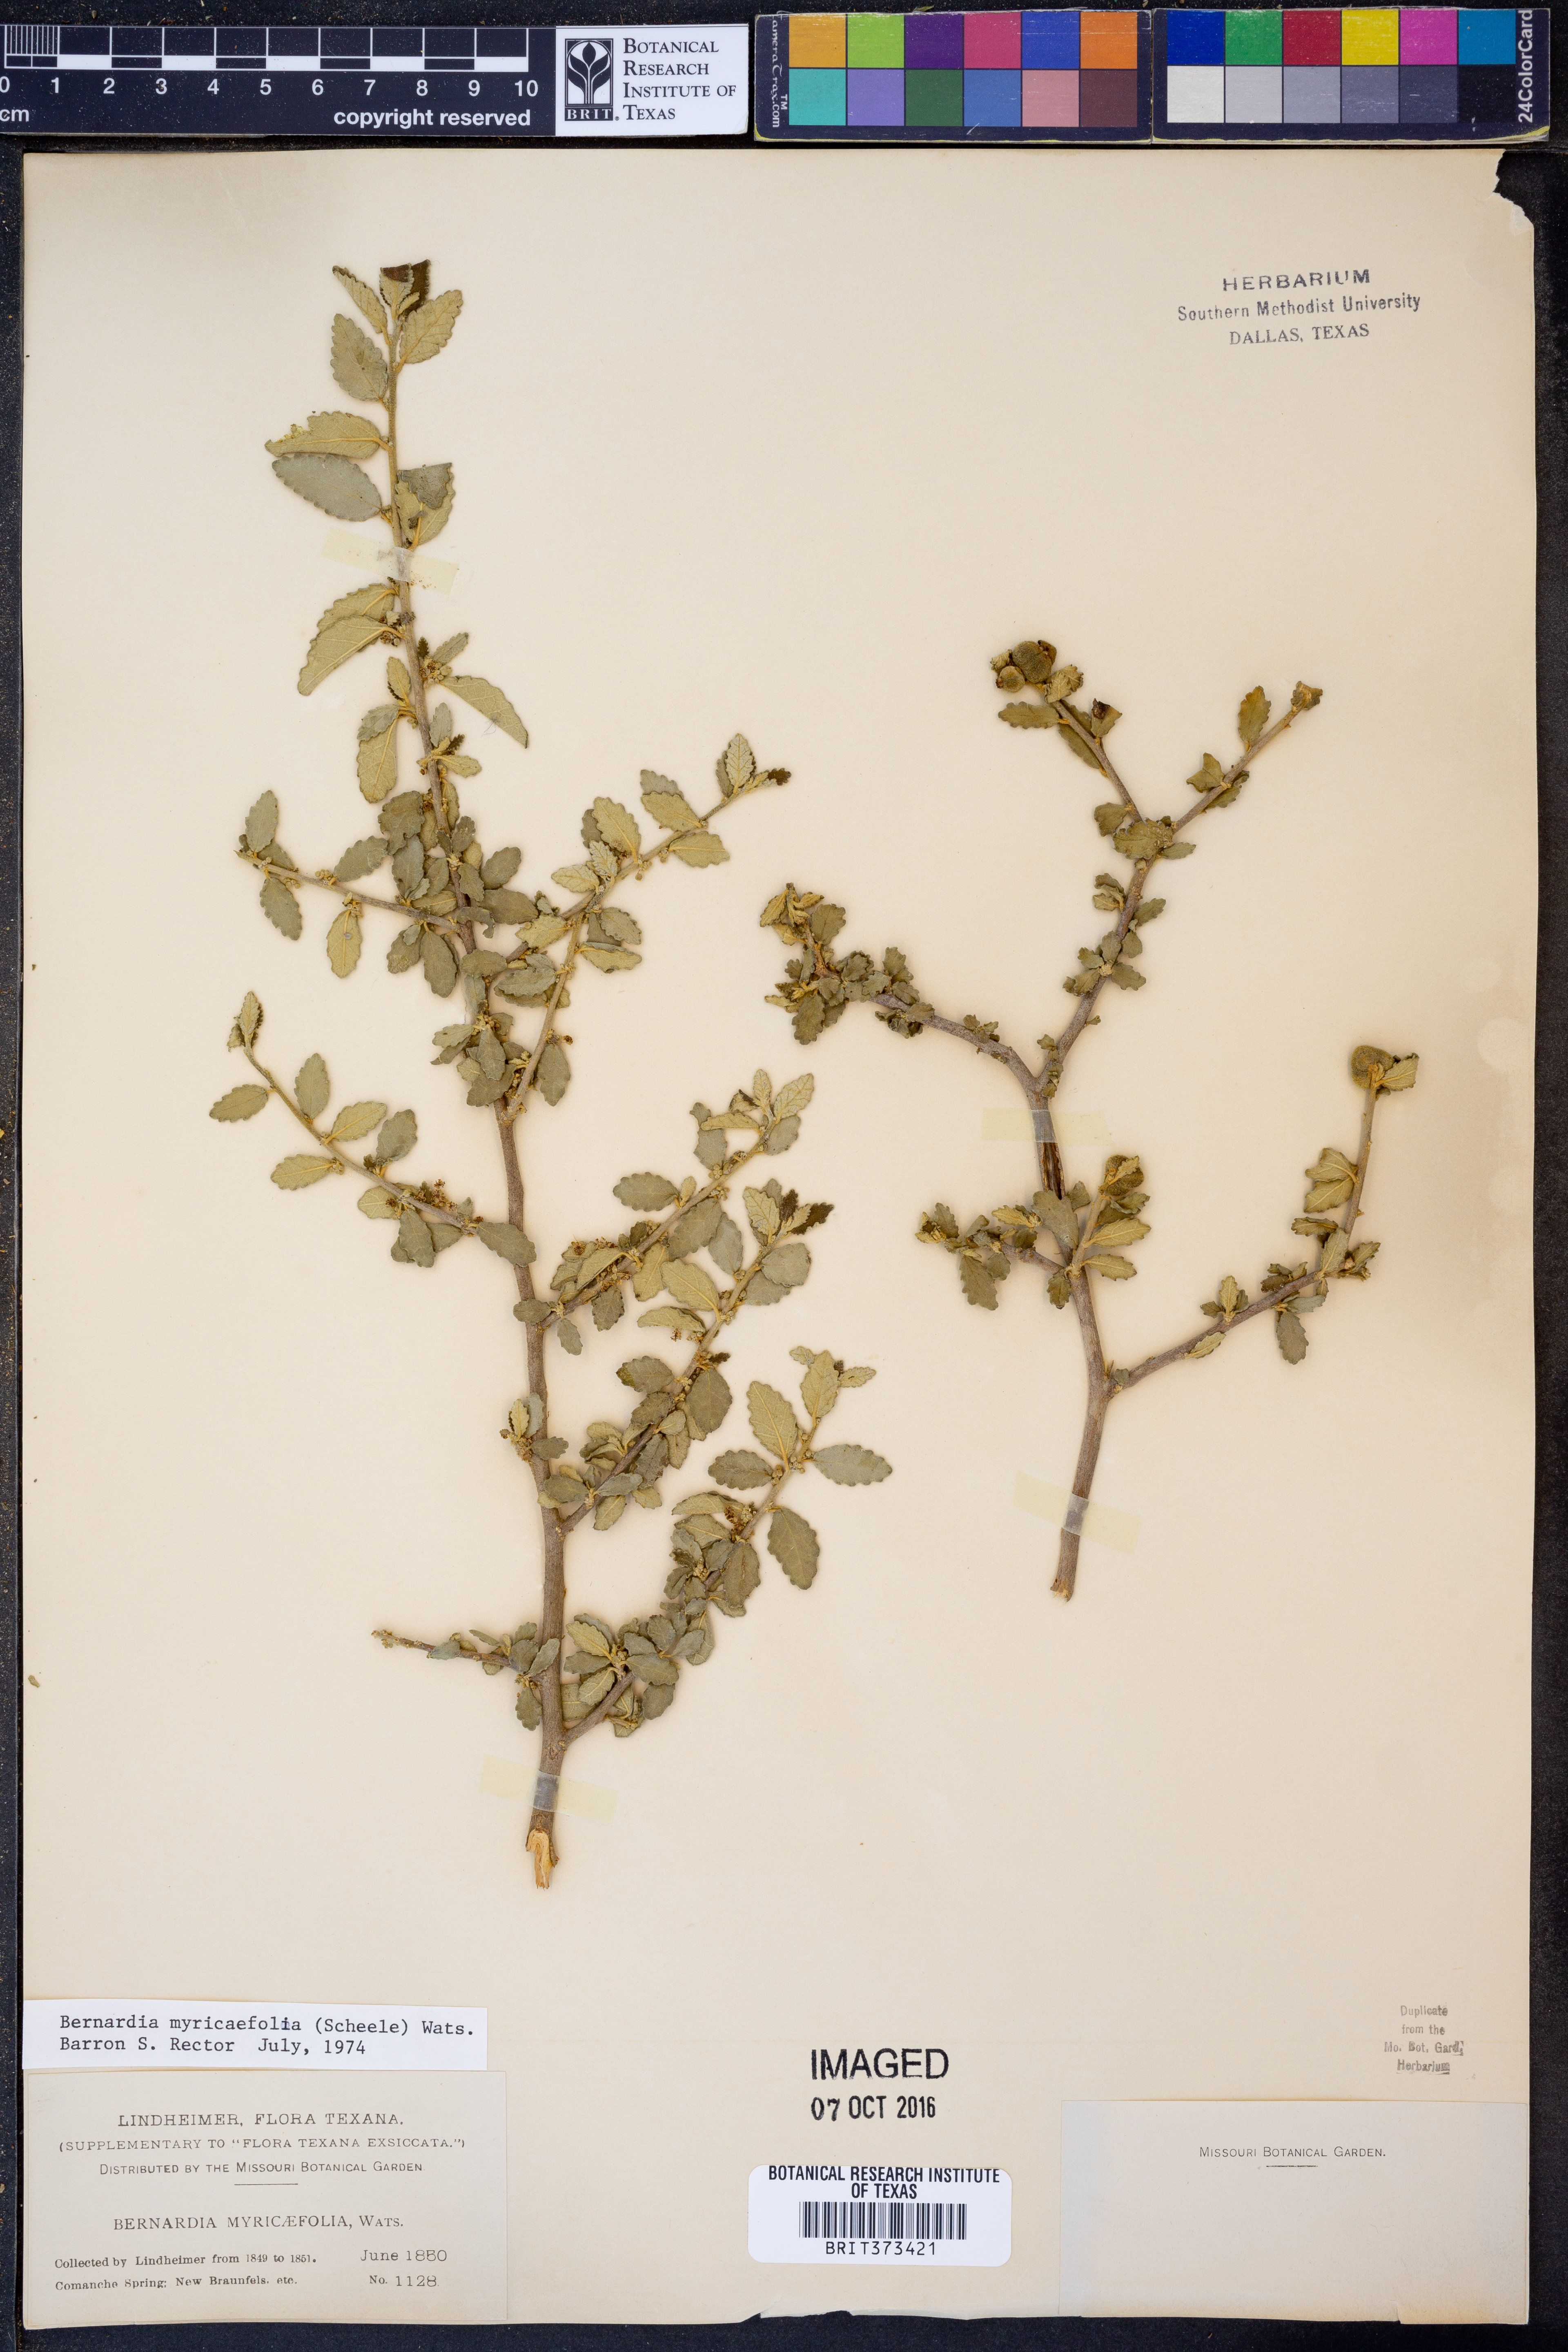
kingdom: Plantae
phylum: Tracheophyta
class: Magnoliopsida
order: Malpighiales
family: Euphorbiaceae
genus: Bernardia
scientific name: Bernardia myricifolia
